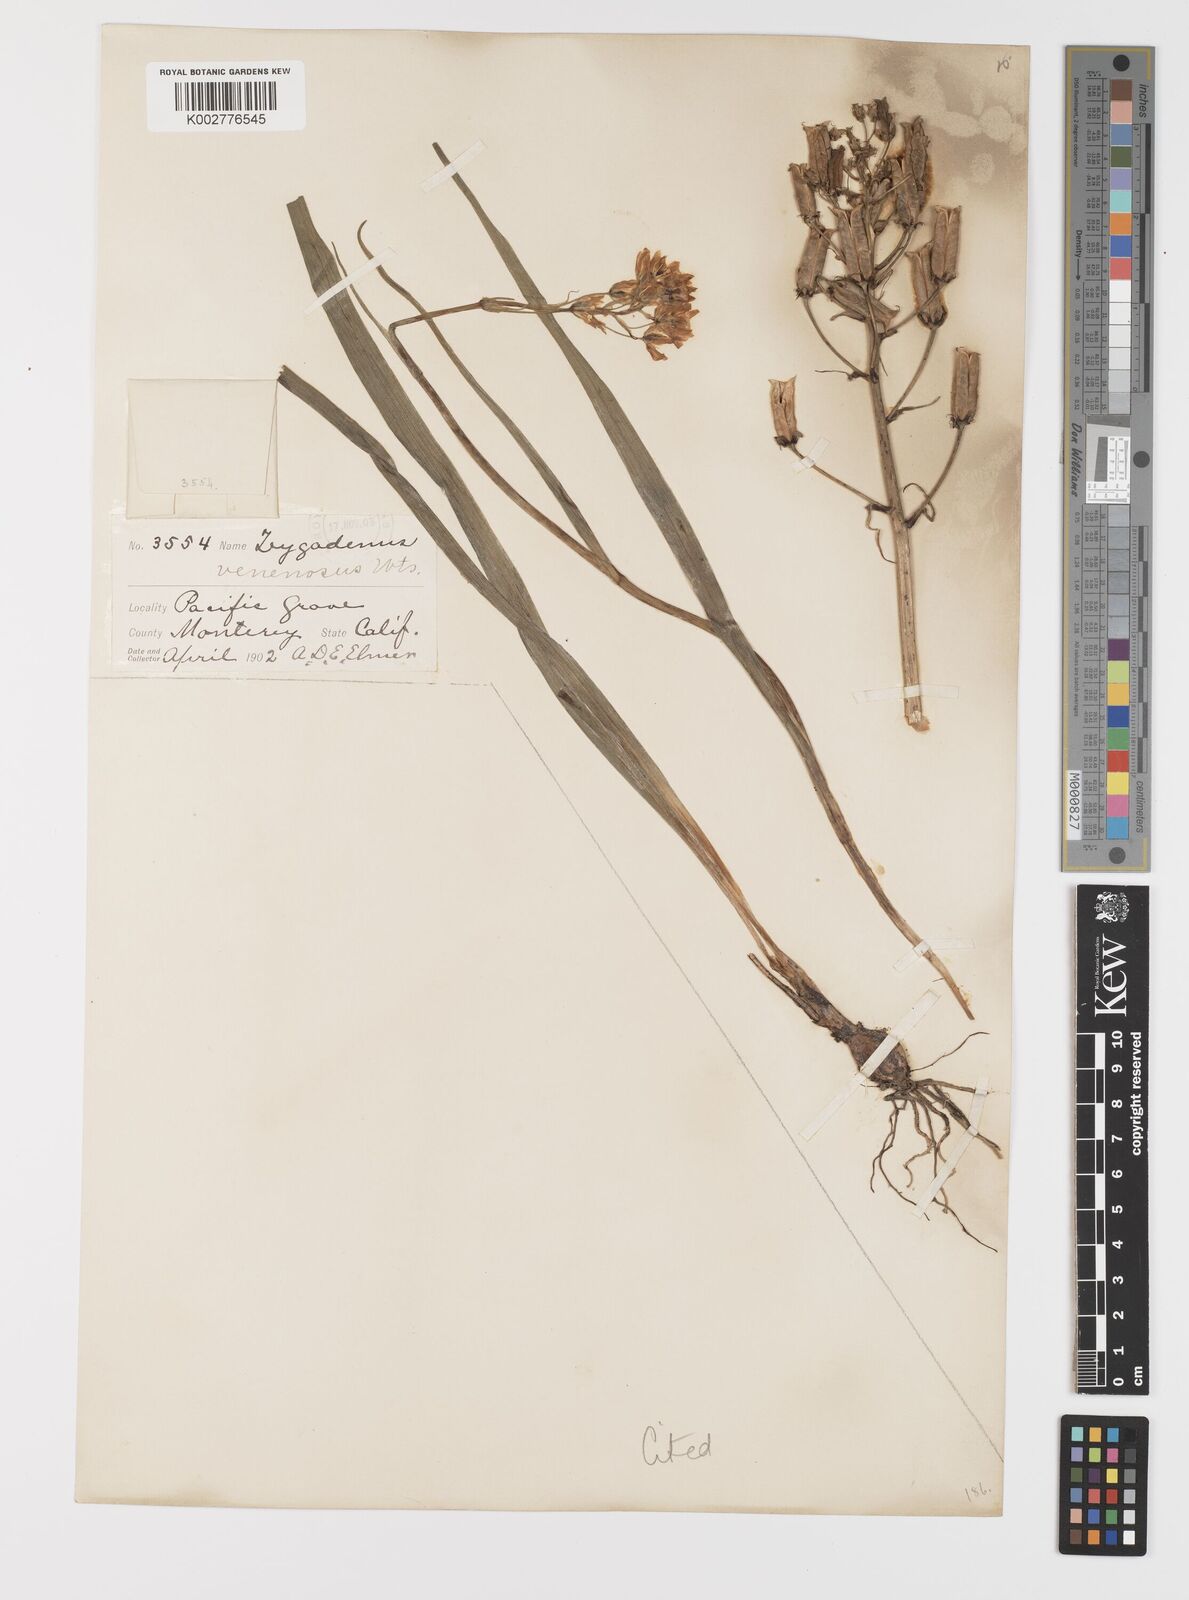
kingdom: Plantae
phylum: Tracheophyta
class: Liliopsida
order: Liliales
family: Melanthiaceae
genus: Toxicoscordion
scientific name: Toxicoscordion fremontii
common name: Fremont's death camas
